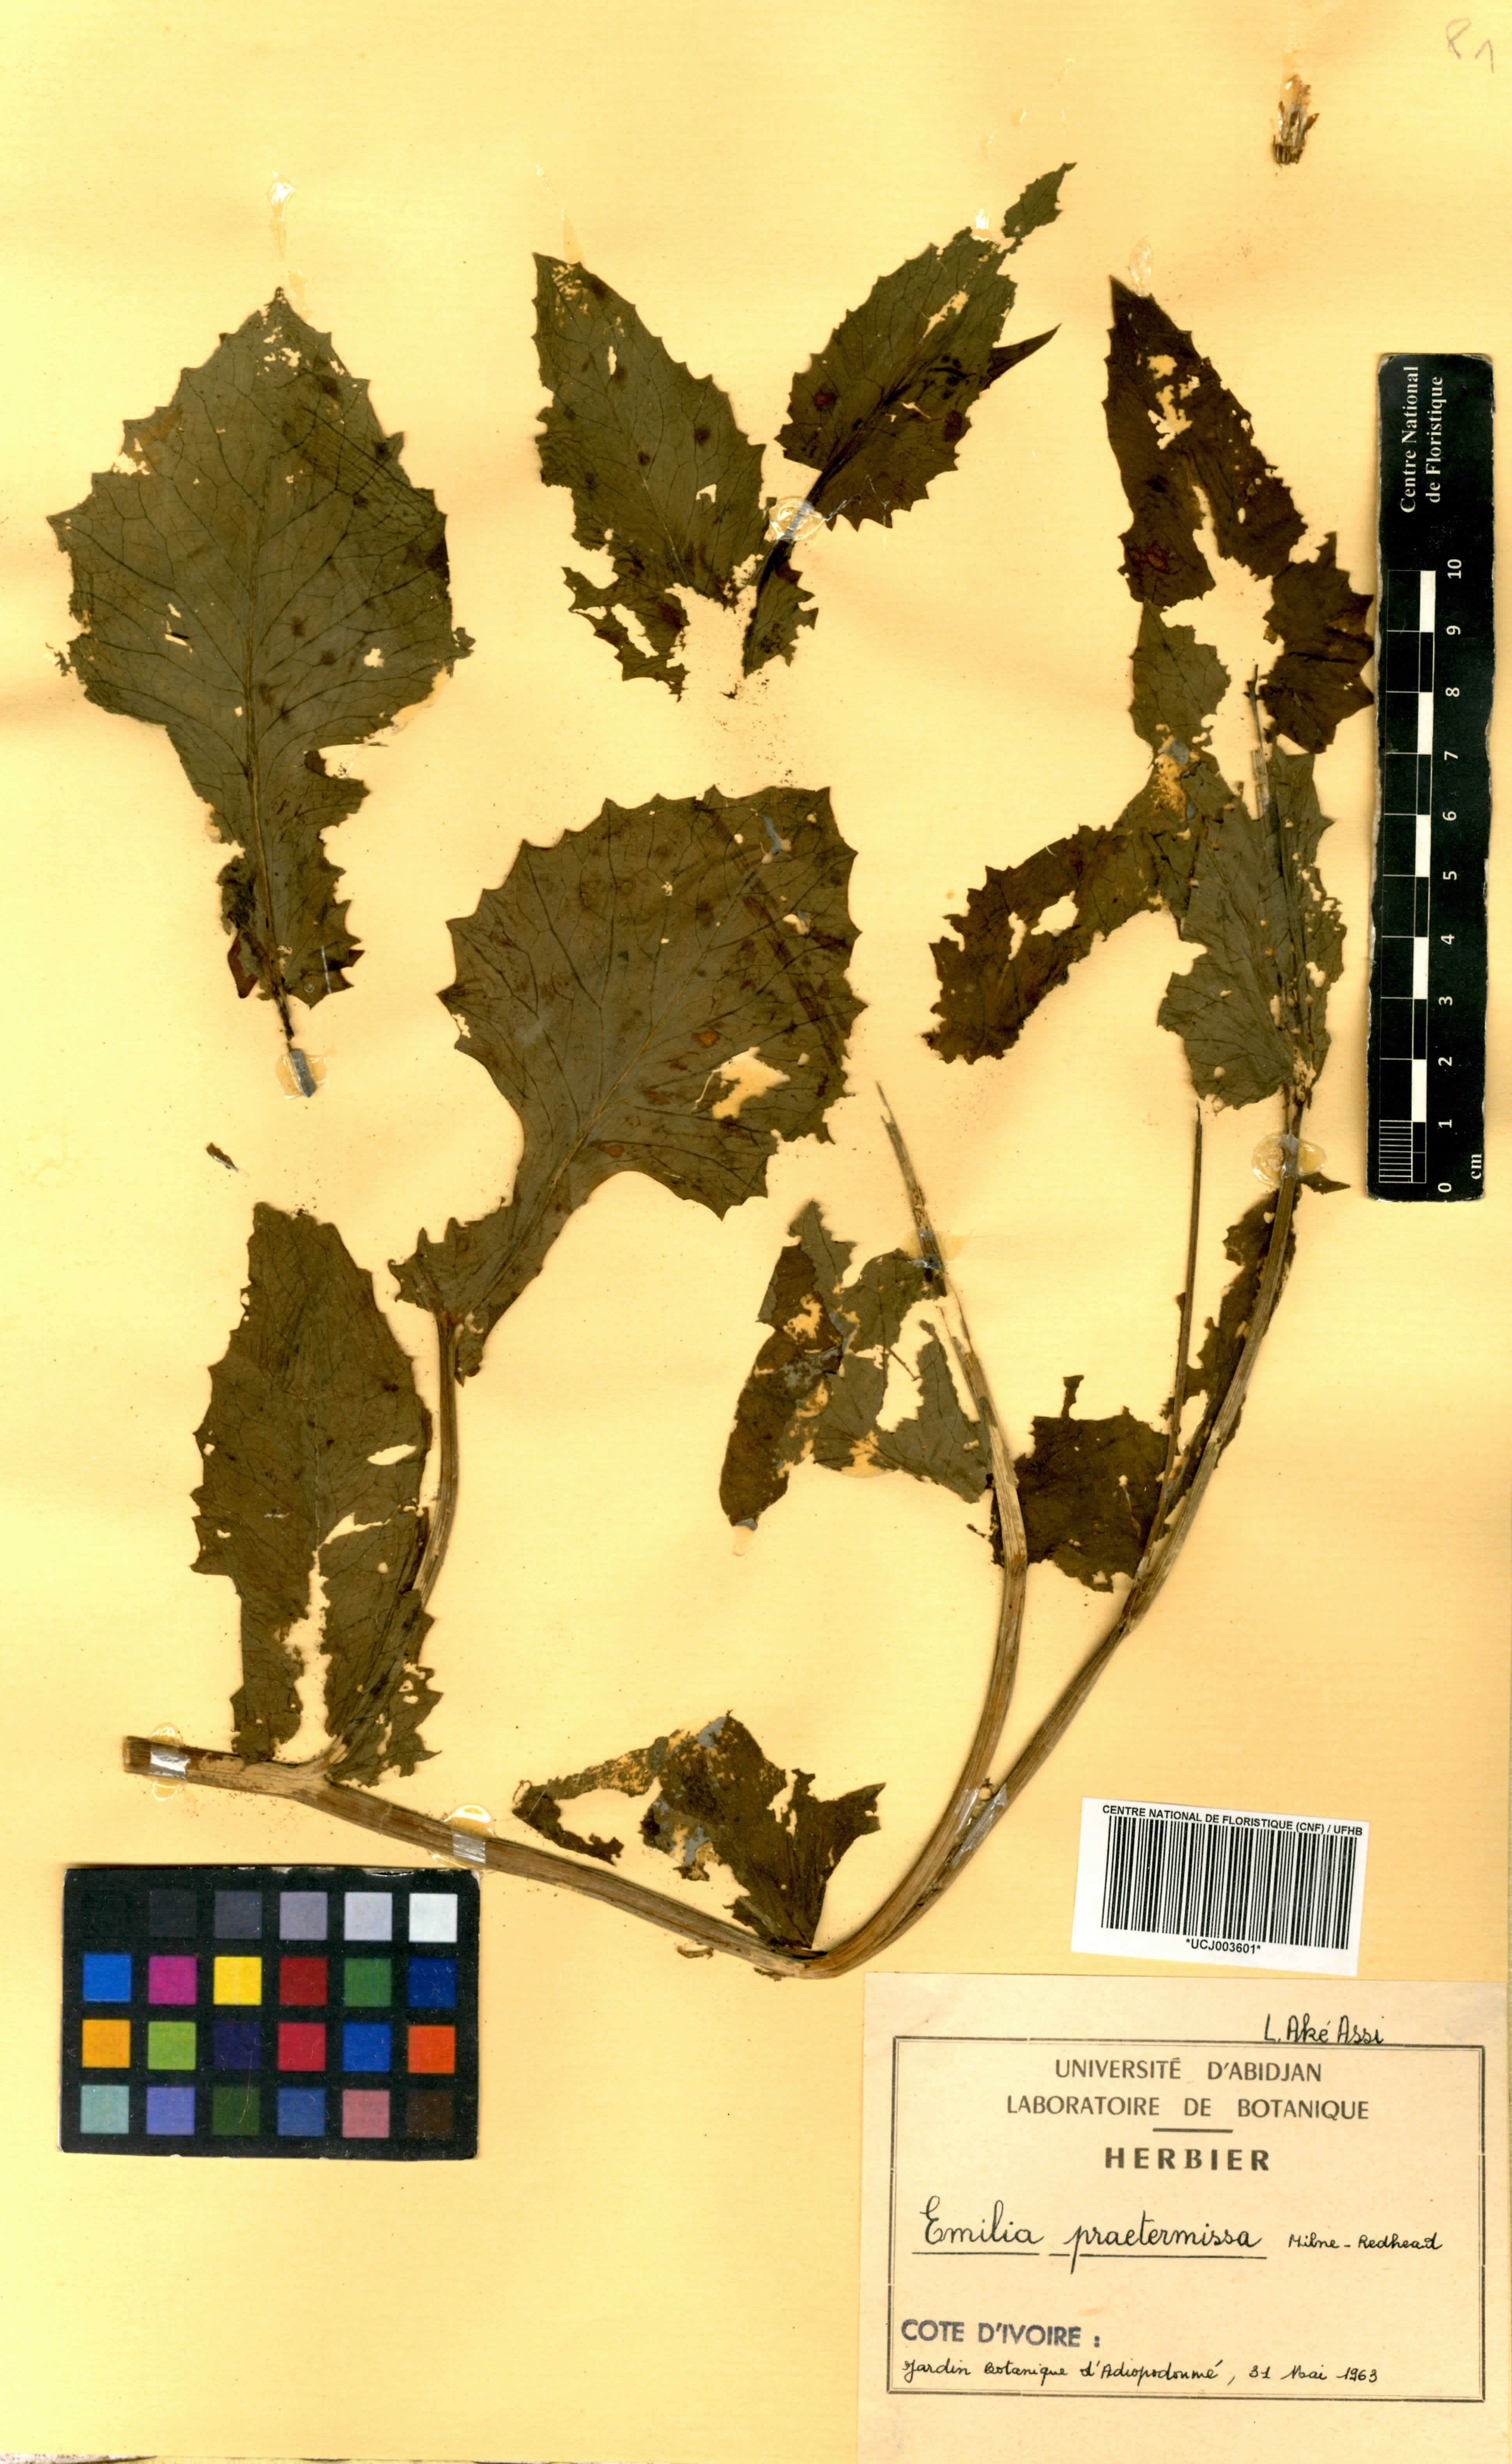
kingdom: Plantae
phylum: Tracheophyta
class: Magnoliopsida
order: Asterales
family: Asteraceae
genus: Emilia
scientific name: Emilia praetermissa
